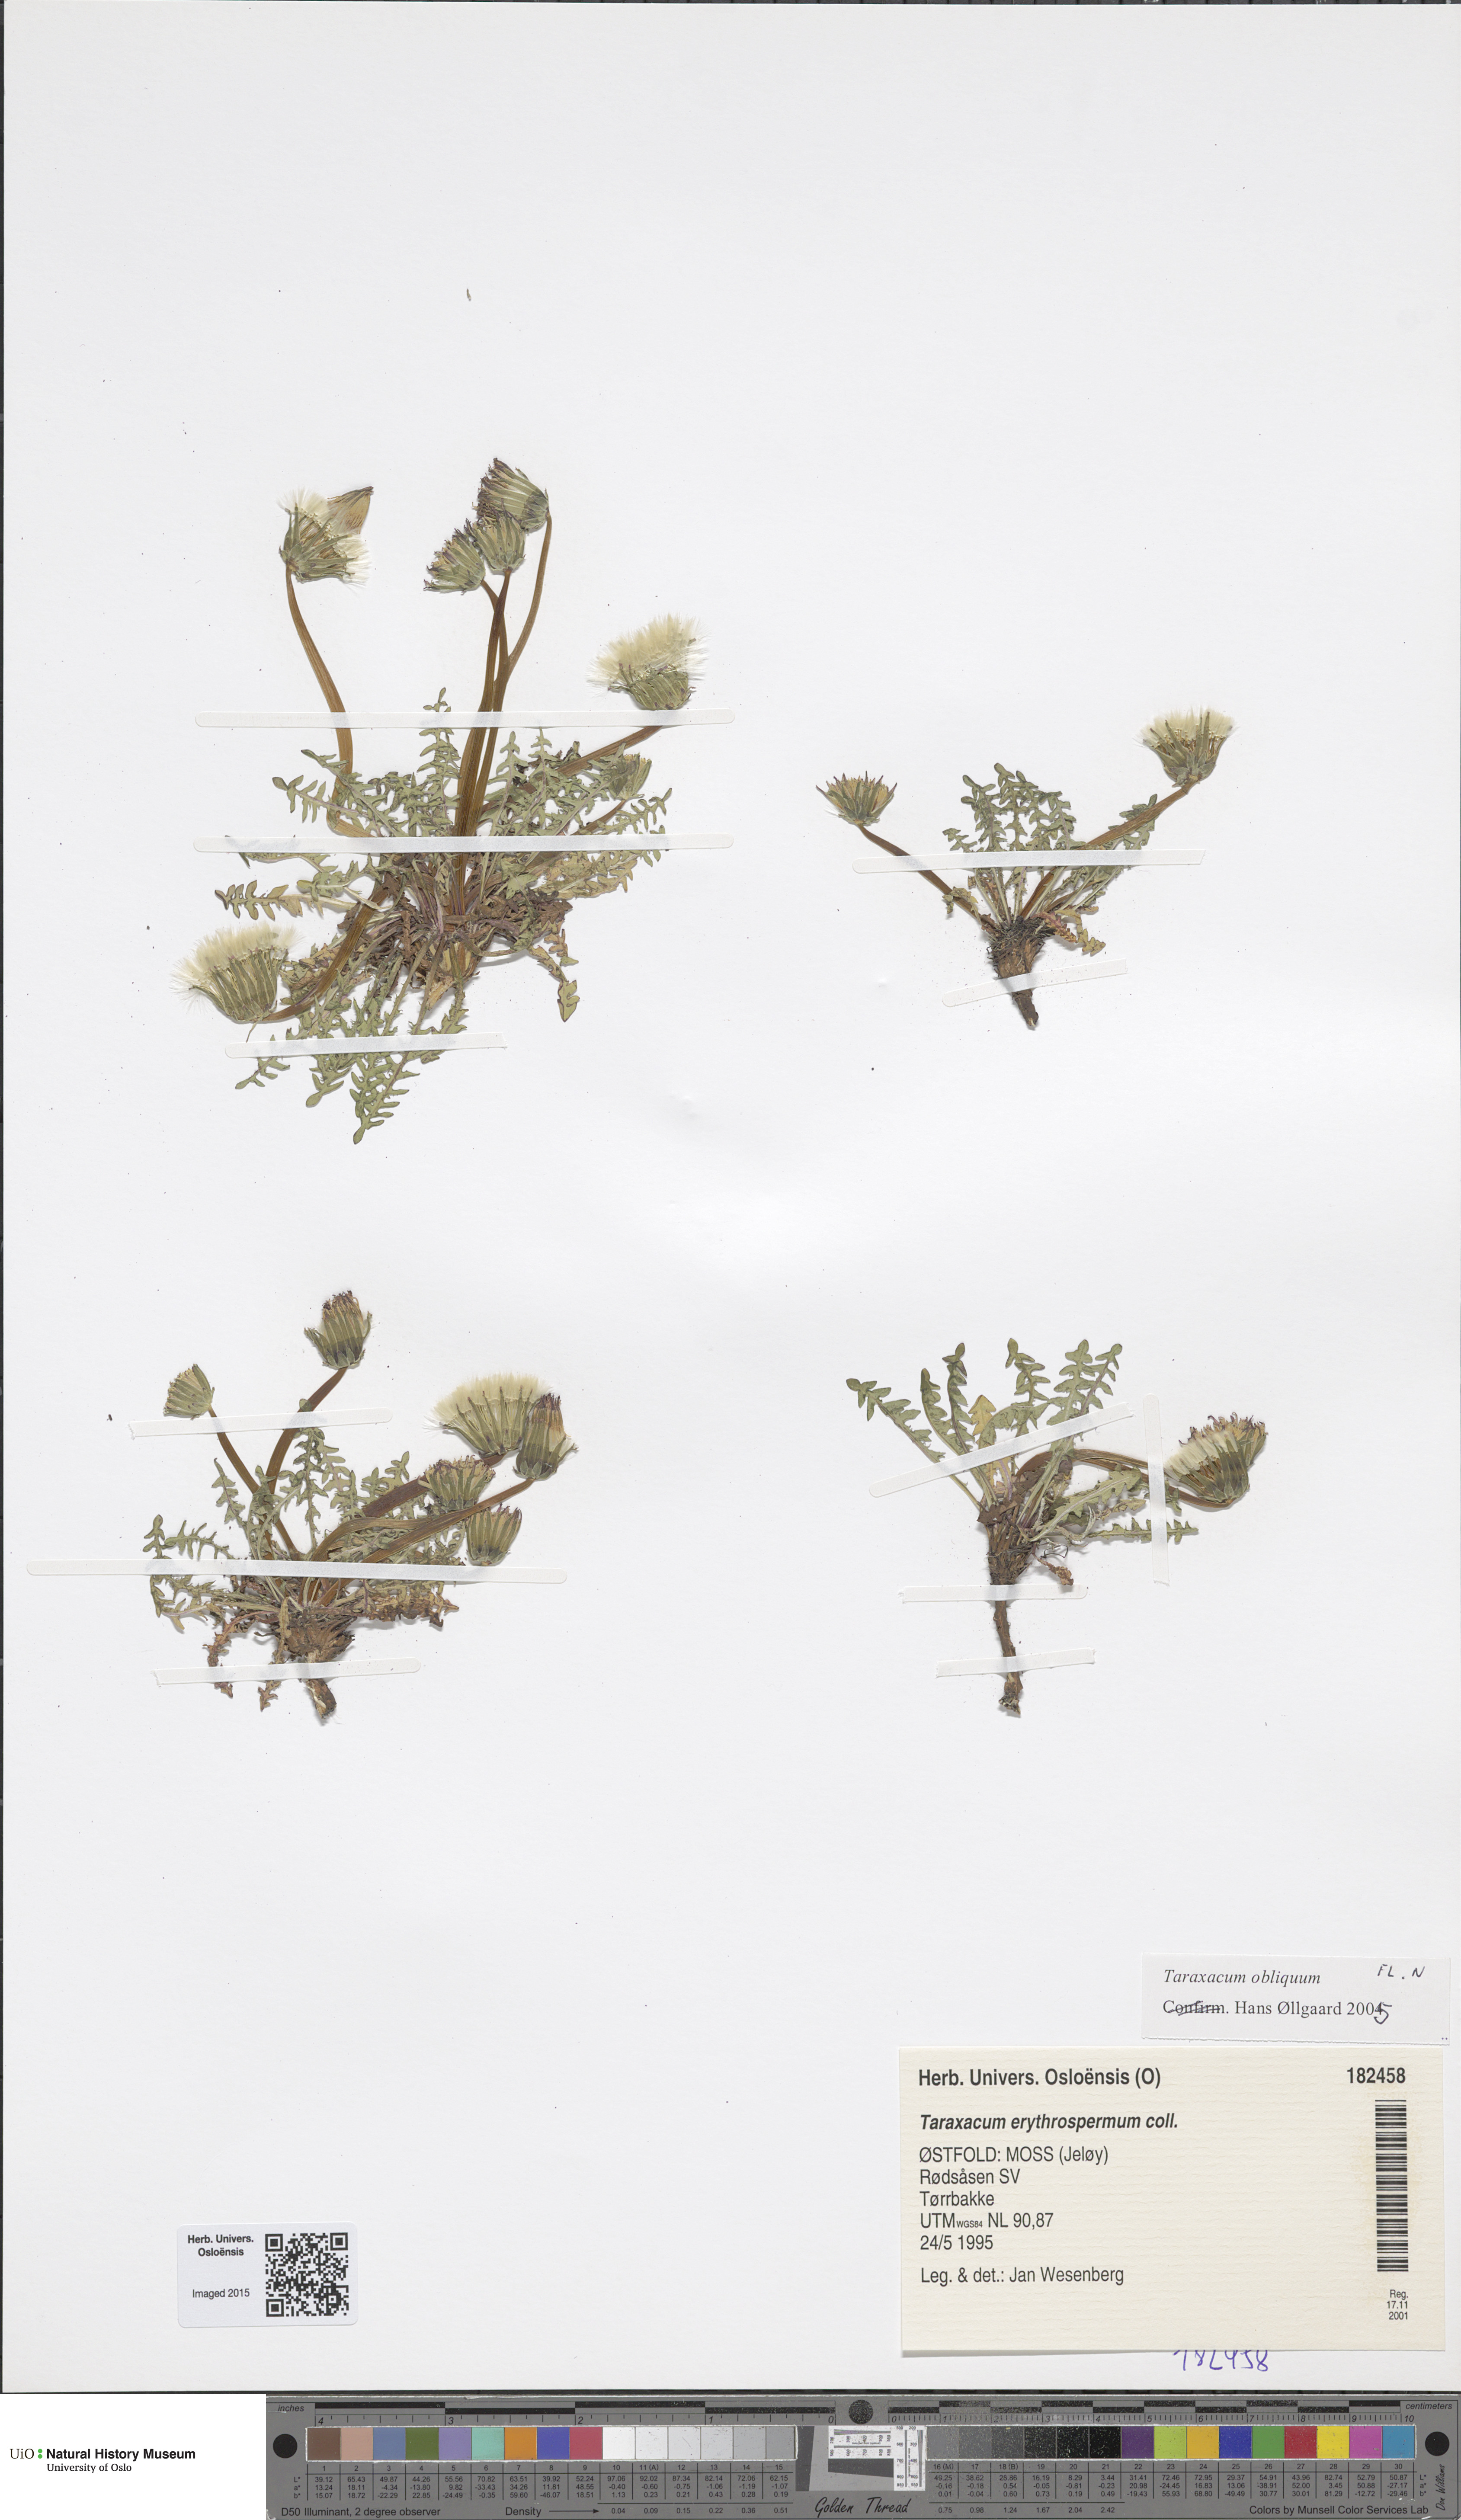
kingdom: Plantae
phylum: Tracheophyta
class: Magnoliopsida
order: Asterales
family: Asteraceae
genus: Taraxacum
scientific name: Taraxacum erythrospermum
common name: Rock dandelion
